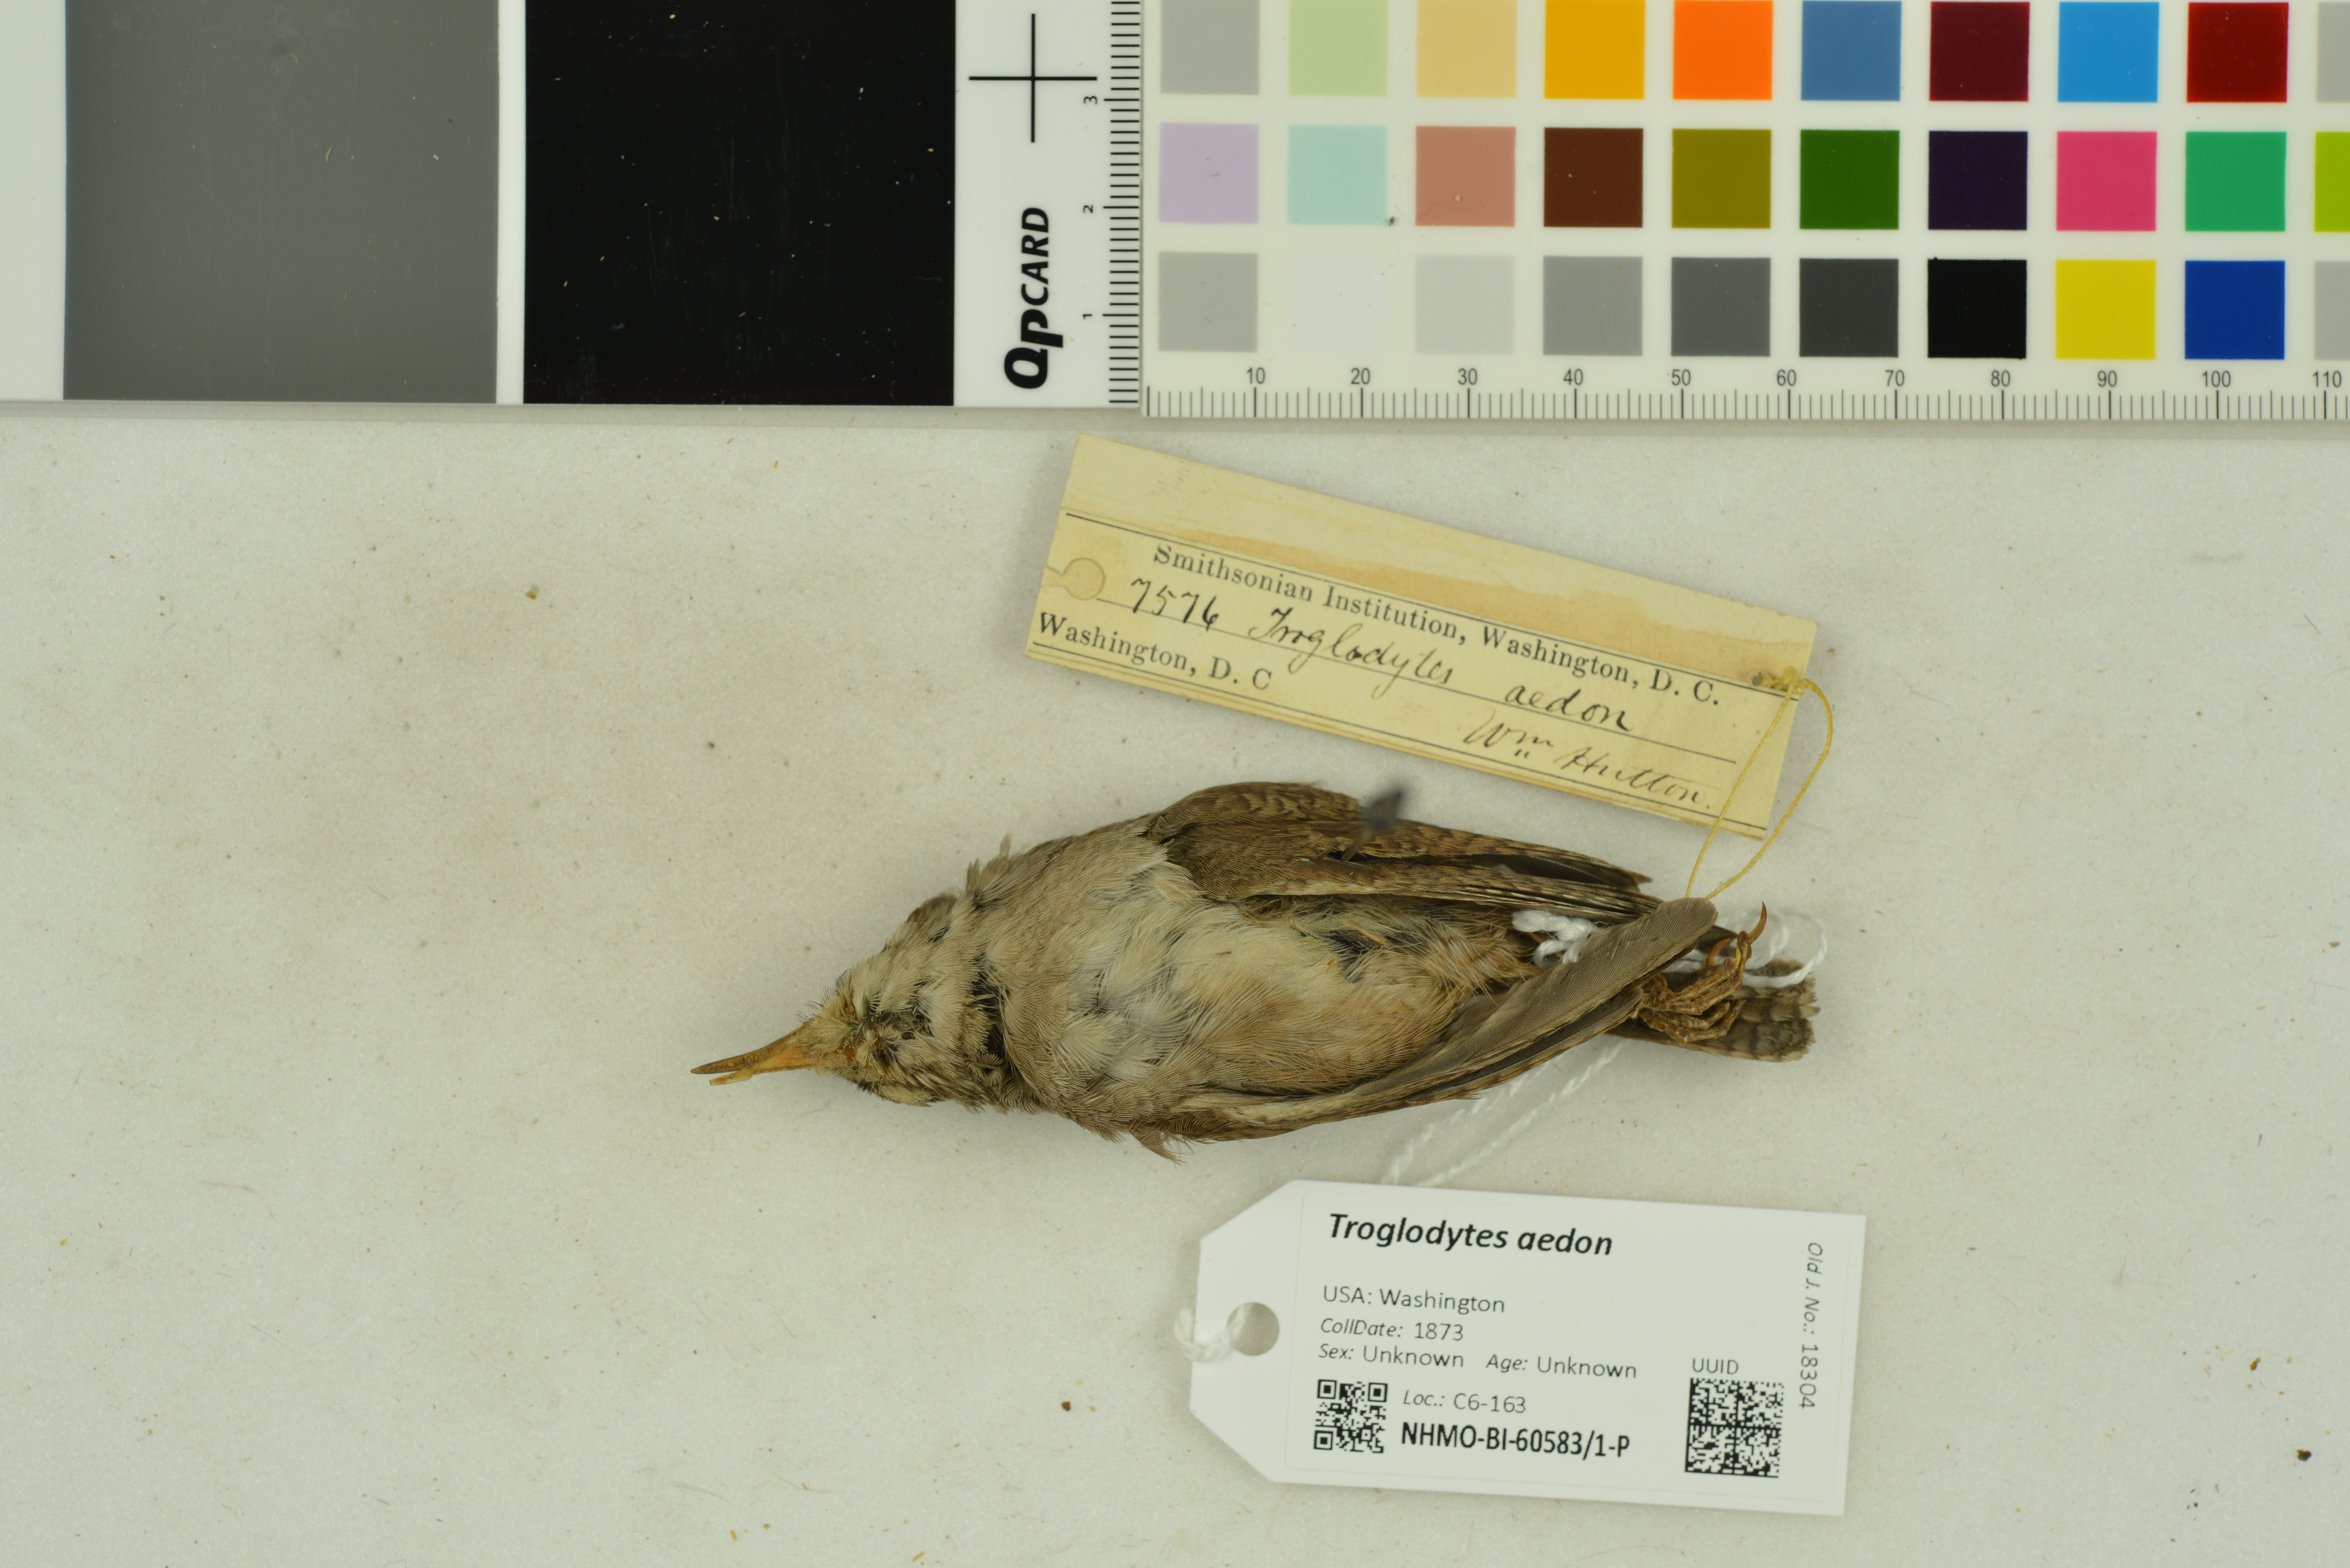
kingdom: Animalia
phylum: Chordata
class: Aves
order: Passeriformes
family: Troglodytidae
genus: Troglodytes
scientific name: Troglodytes aedon
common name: House wren
